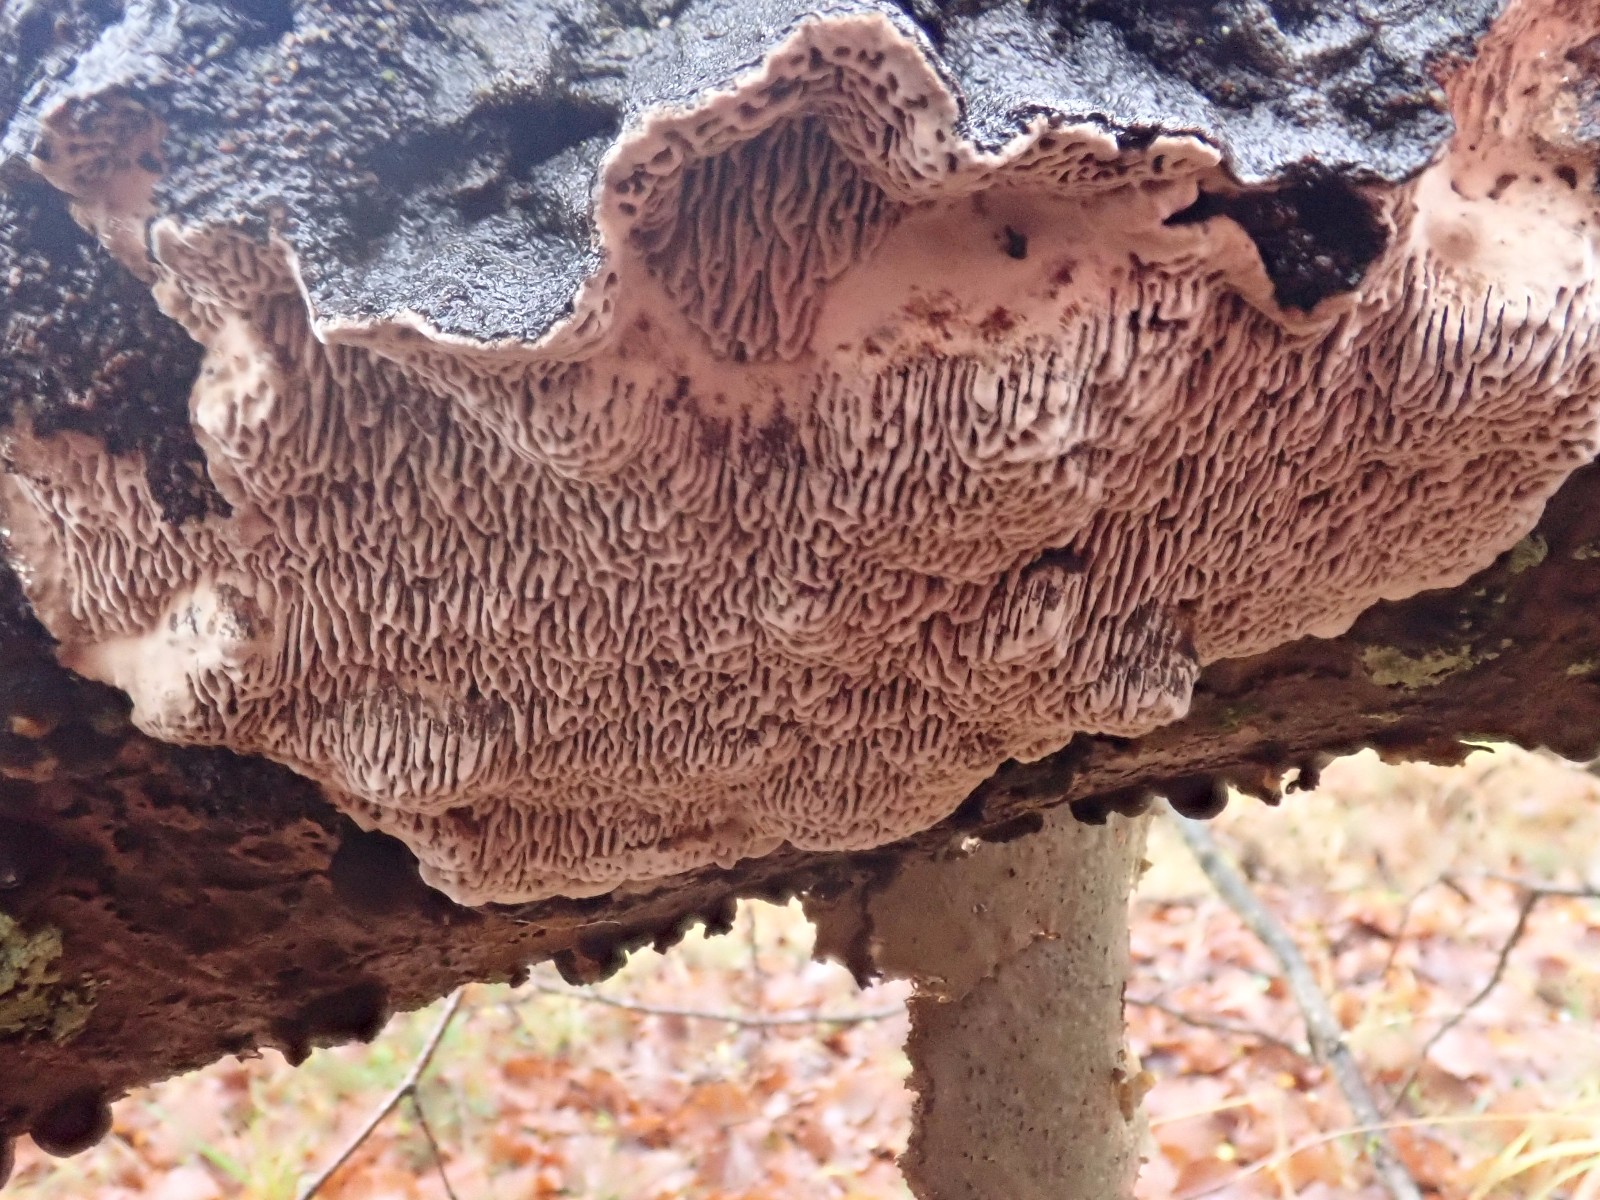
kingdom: Fungi
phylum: Basidiomycota
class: Agaricomycetes
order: Polyporales
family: Polyporaceae
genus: Podofomes
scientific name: Podofomes mollis
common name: blød begporesvamp
